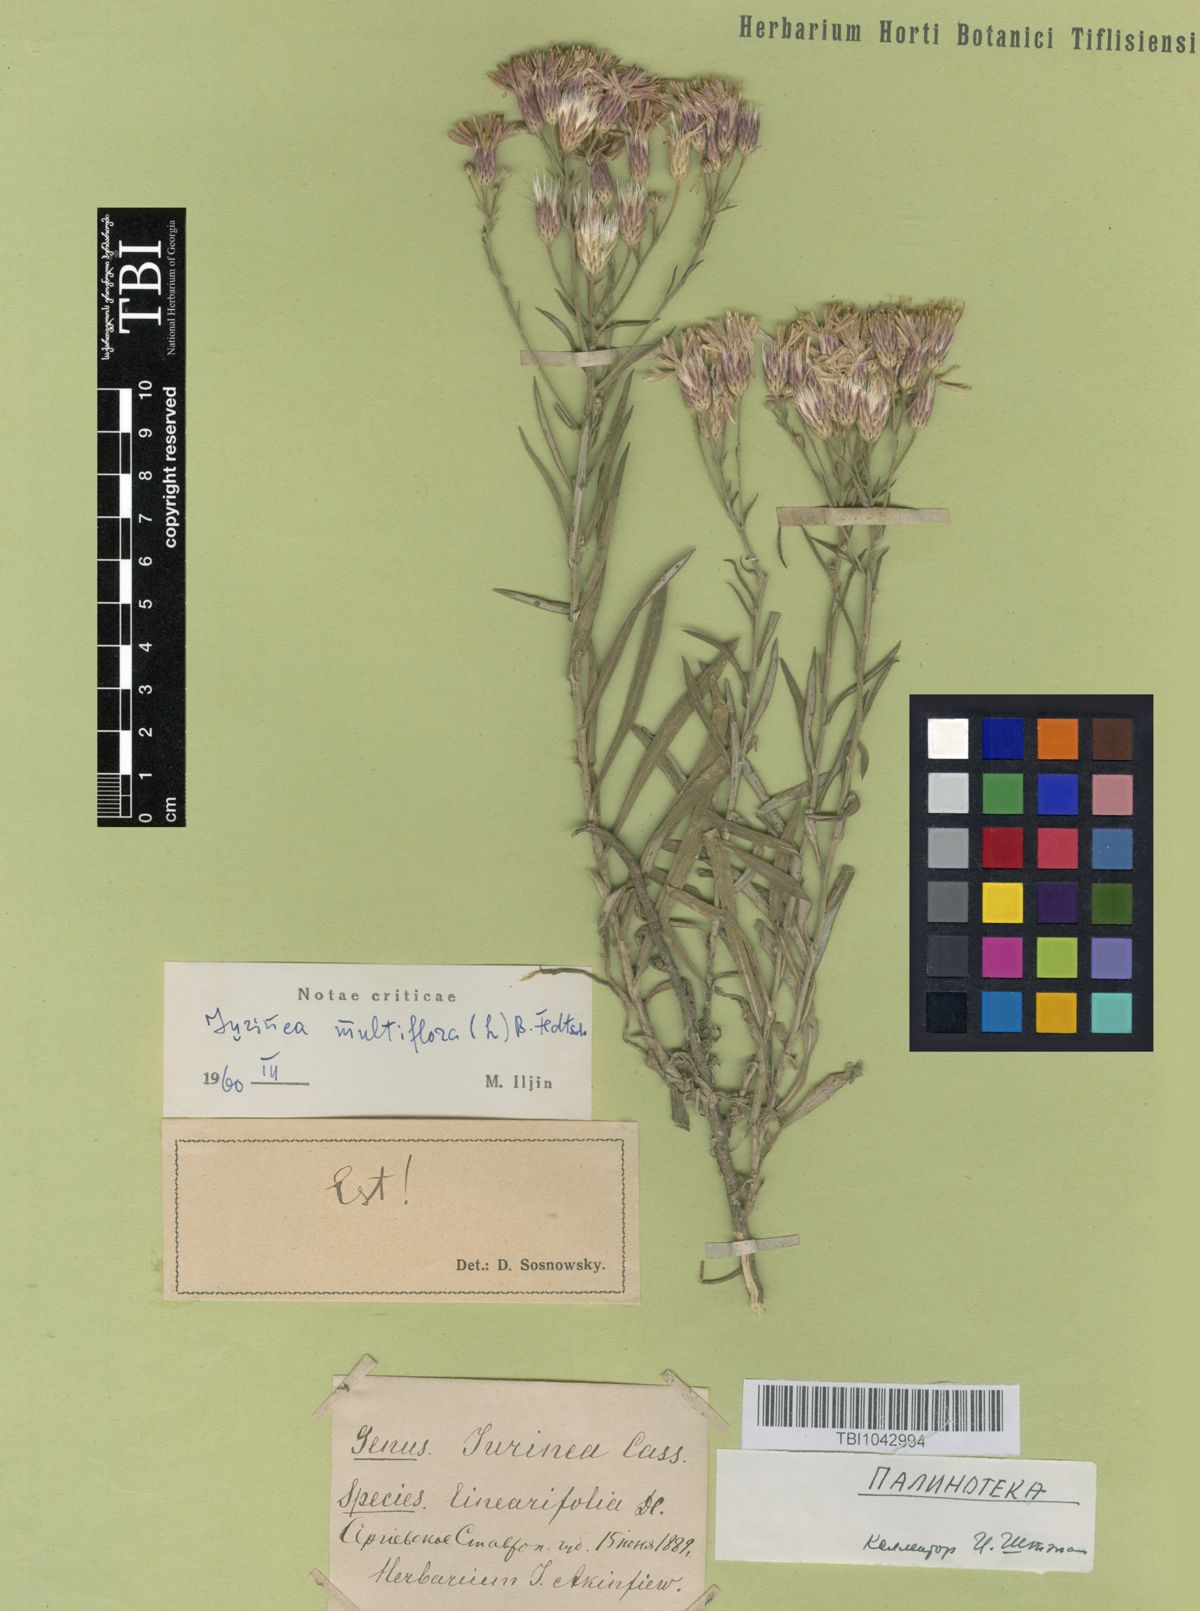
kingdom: Plantae
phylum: Tracheophyta
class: Magnoliopsida
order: Asterales
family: Asteraceae
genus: Jurinea
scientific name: Jurinea multiflora
